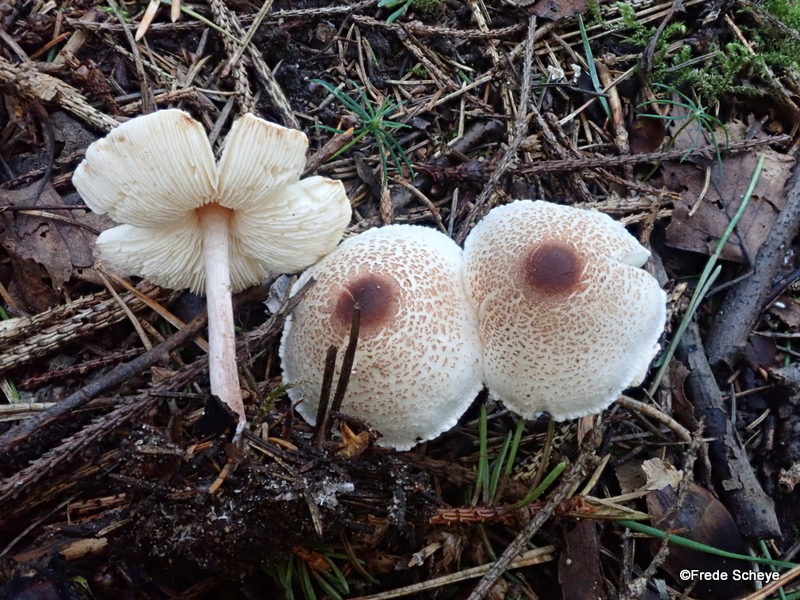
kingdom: Fungi
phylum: Basidiomycota
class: Agaricomycetes
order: Agaricales
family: Agaricaceae
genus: Lepiota
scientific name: Lepiota cristata
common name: stinkende parasolhat
